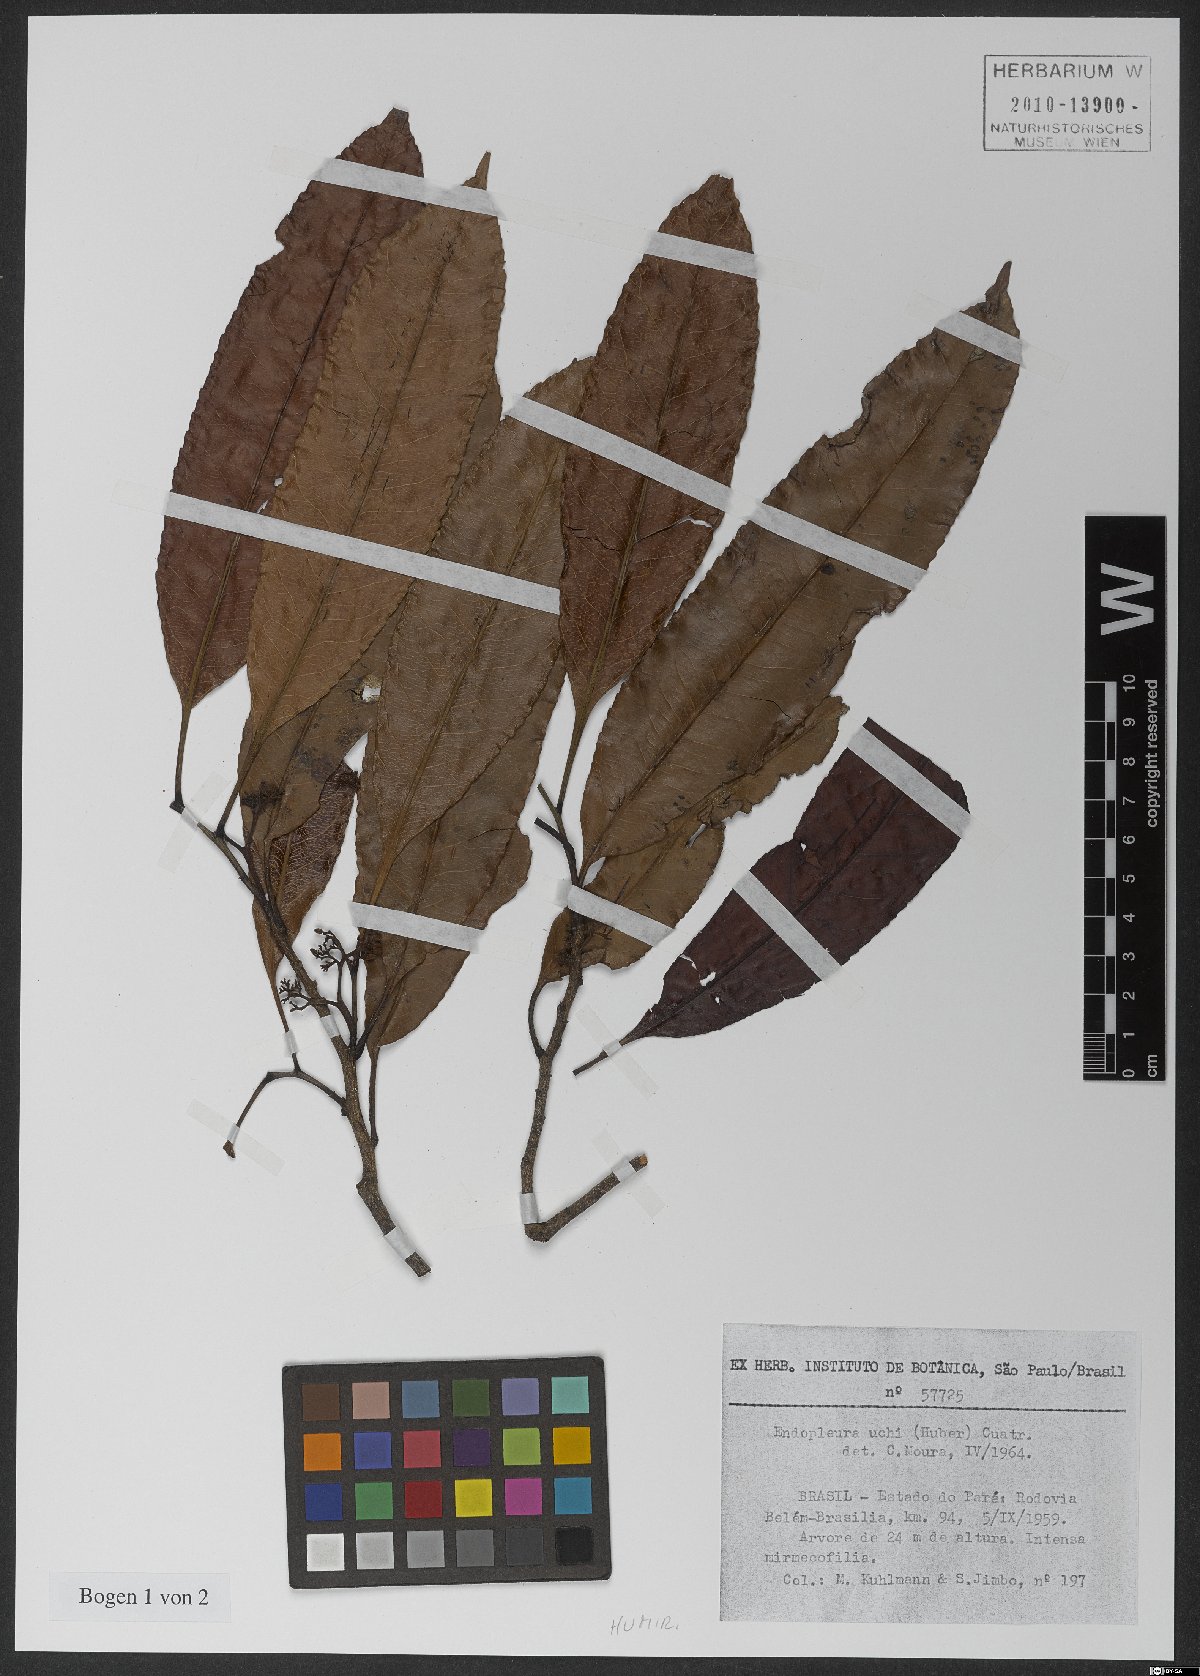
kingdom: Plantae
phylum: Tracheophyta
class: Magnoliopsida
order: Malpighiales
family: Humiriaceae
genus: Endopleura
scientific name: Endopleura uchi
